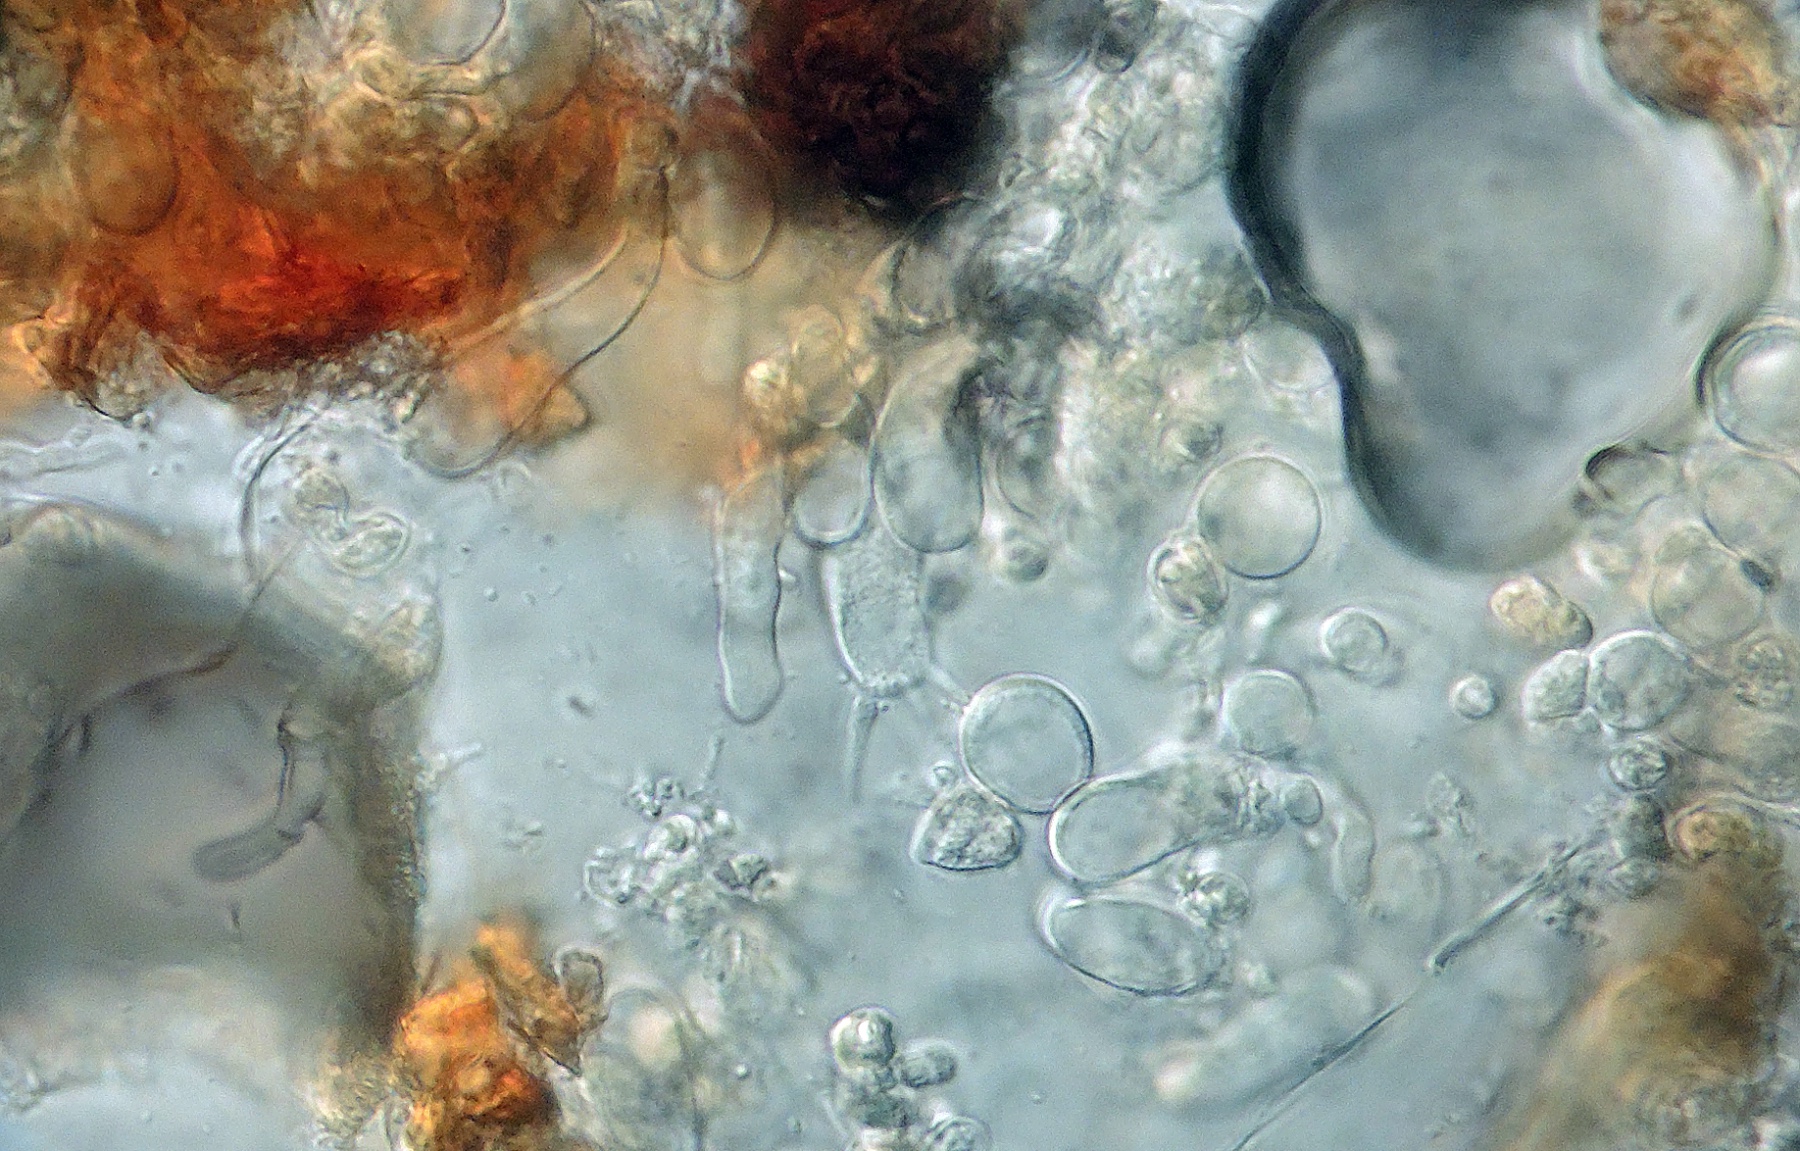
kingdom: Fungi
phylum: Basidiomycota
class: Agaricomycetes
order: Corticiales
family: Corticiaceae
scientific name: Corticiaceae
